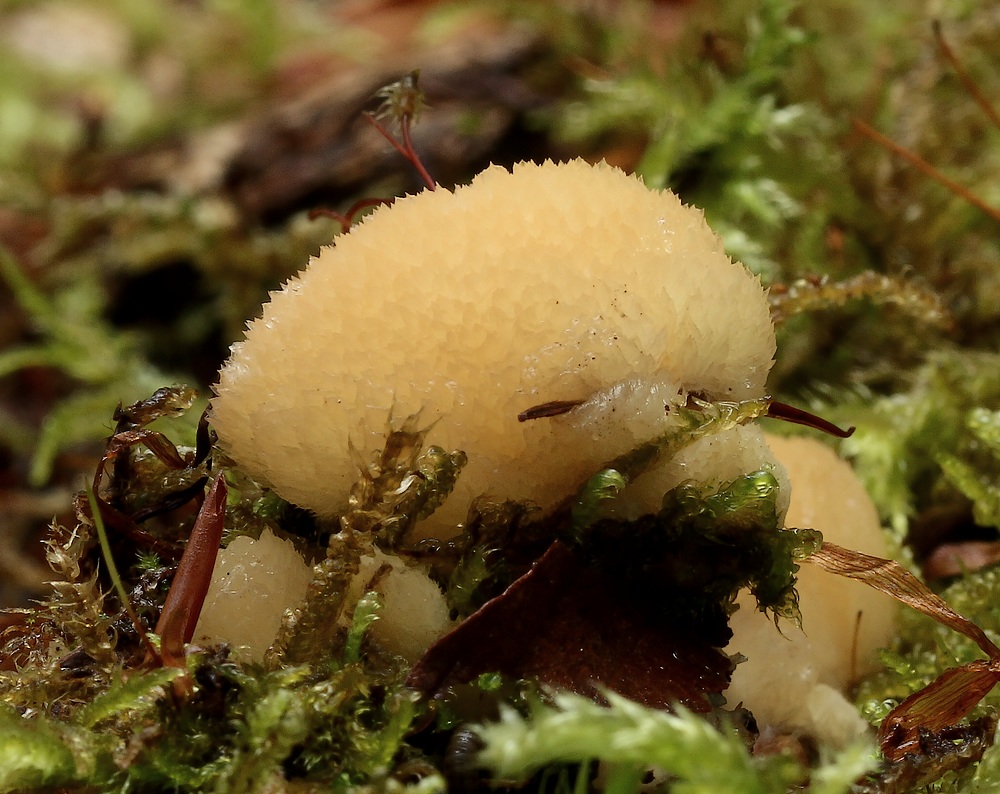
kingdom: Fungi
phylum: Basidiomycota
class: Agaricomycetes
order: Polyporales
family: Fomitopsidaceae
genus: Climacocystis
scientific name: Climacocystis borealis
